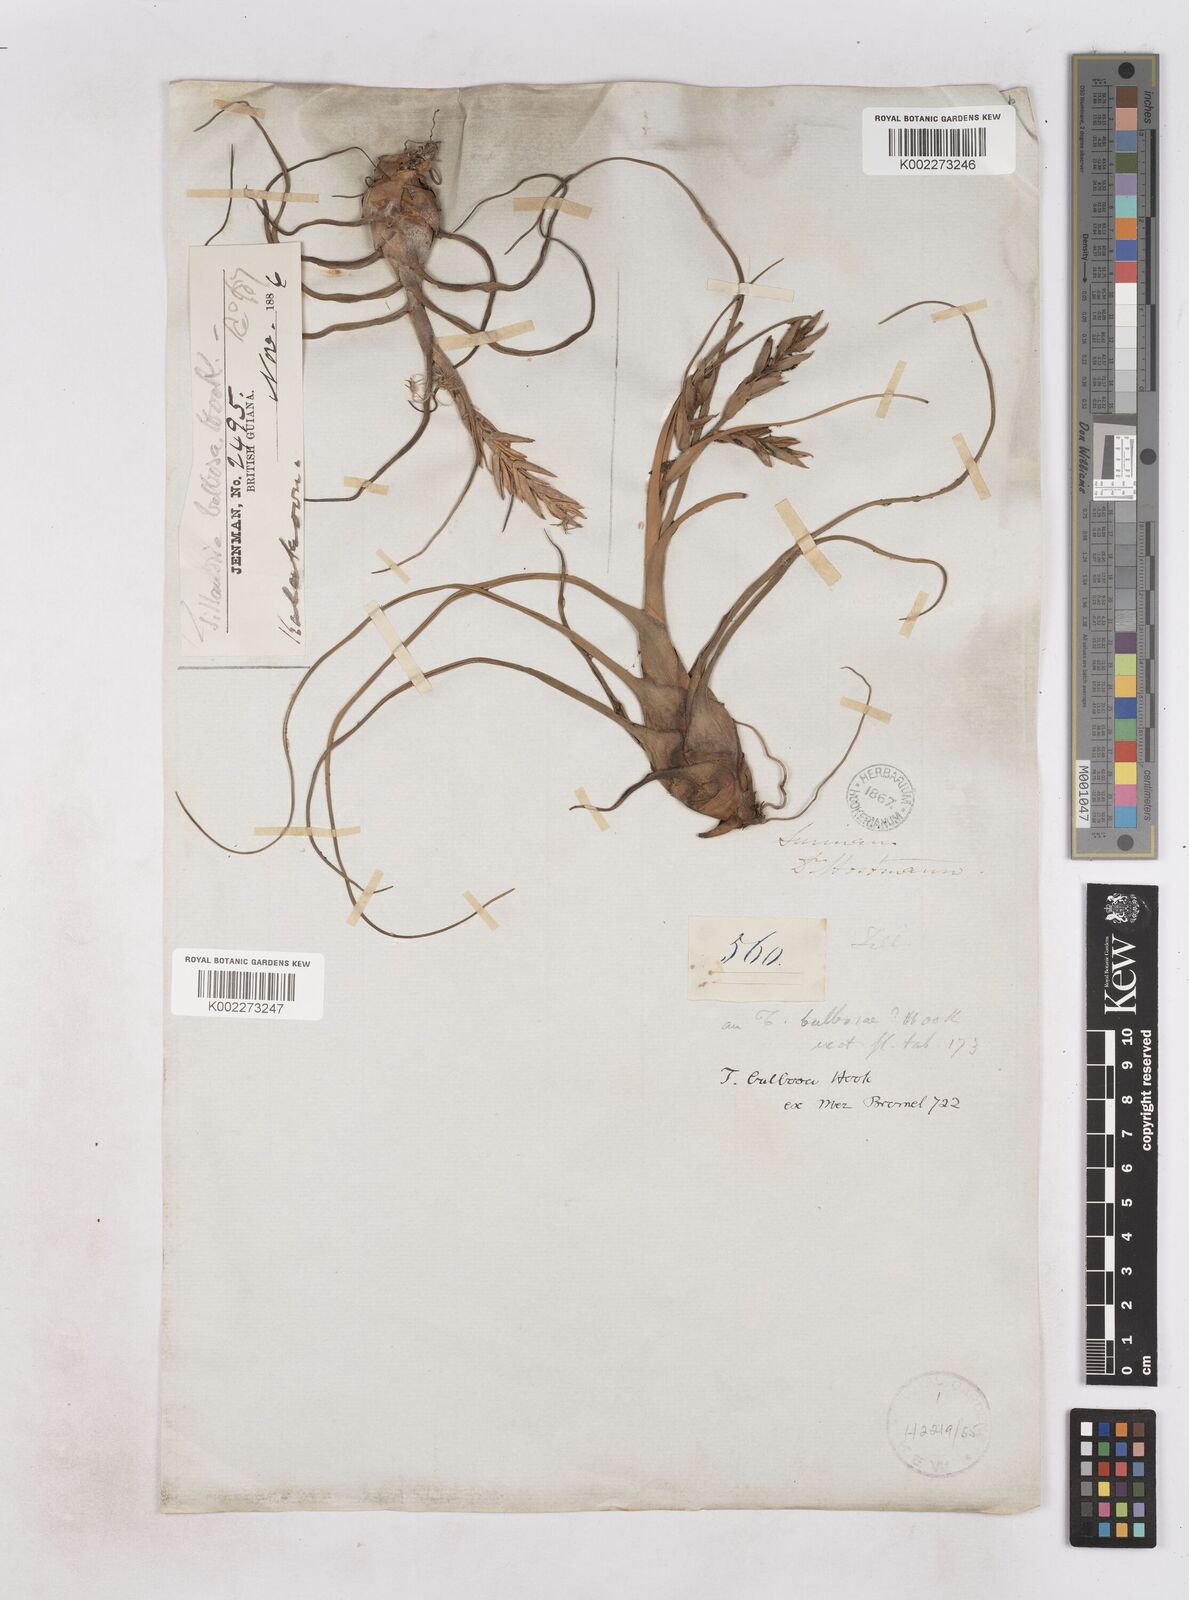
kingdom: Plantae
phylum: Tracheophyta
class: Liliopsida
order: Poales
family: Bromeliaceae
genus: Tillandsia
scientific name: Tillandsia bulbosa
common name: Bulbous airplant
